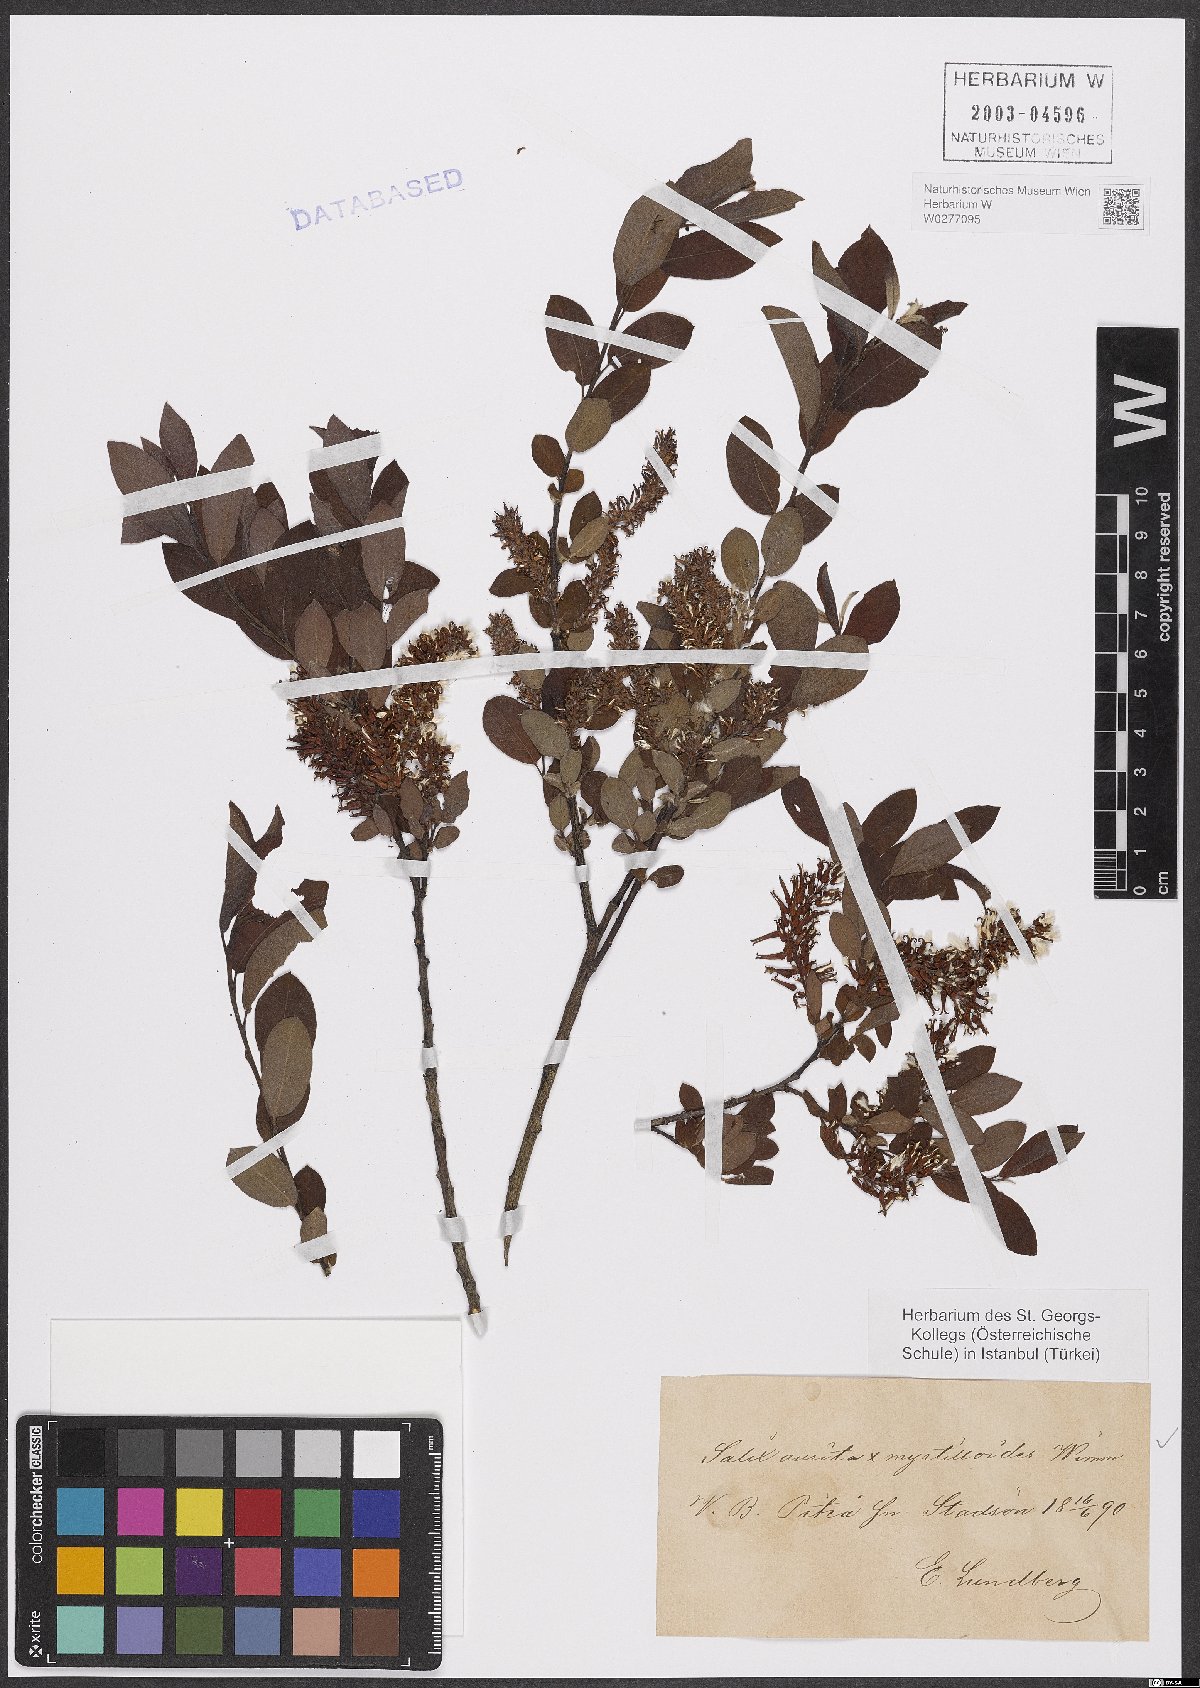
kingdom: Plantae
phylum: Tracheophyta
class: Magnoliopsida
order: Malpighiales
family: Salicaceae
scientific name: Salicaceae
